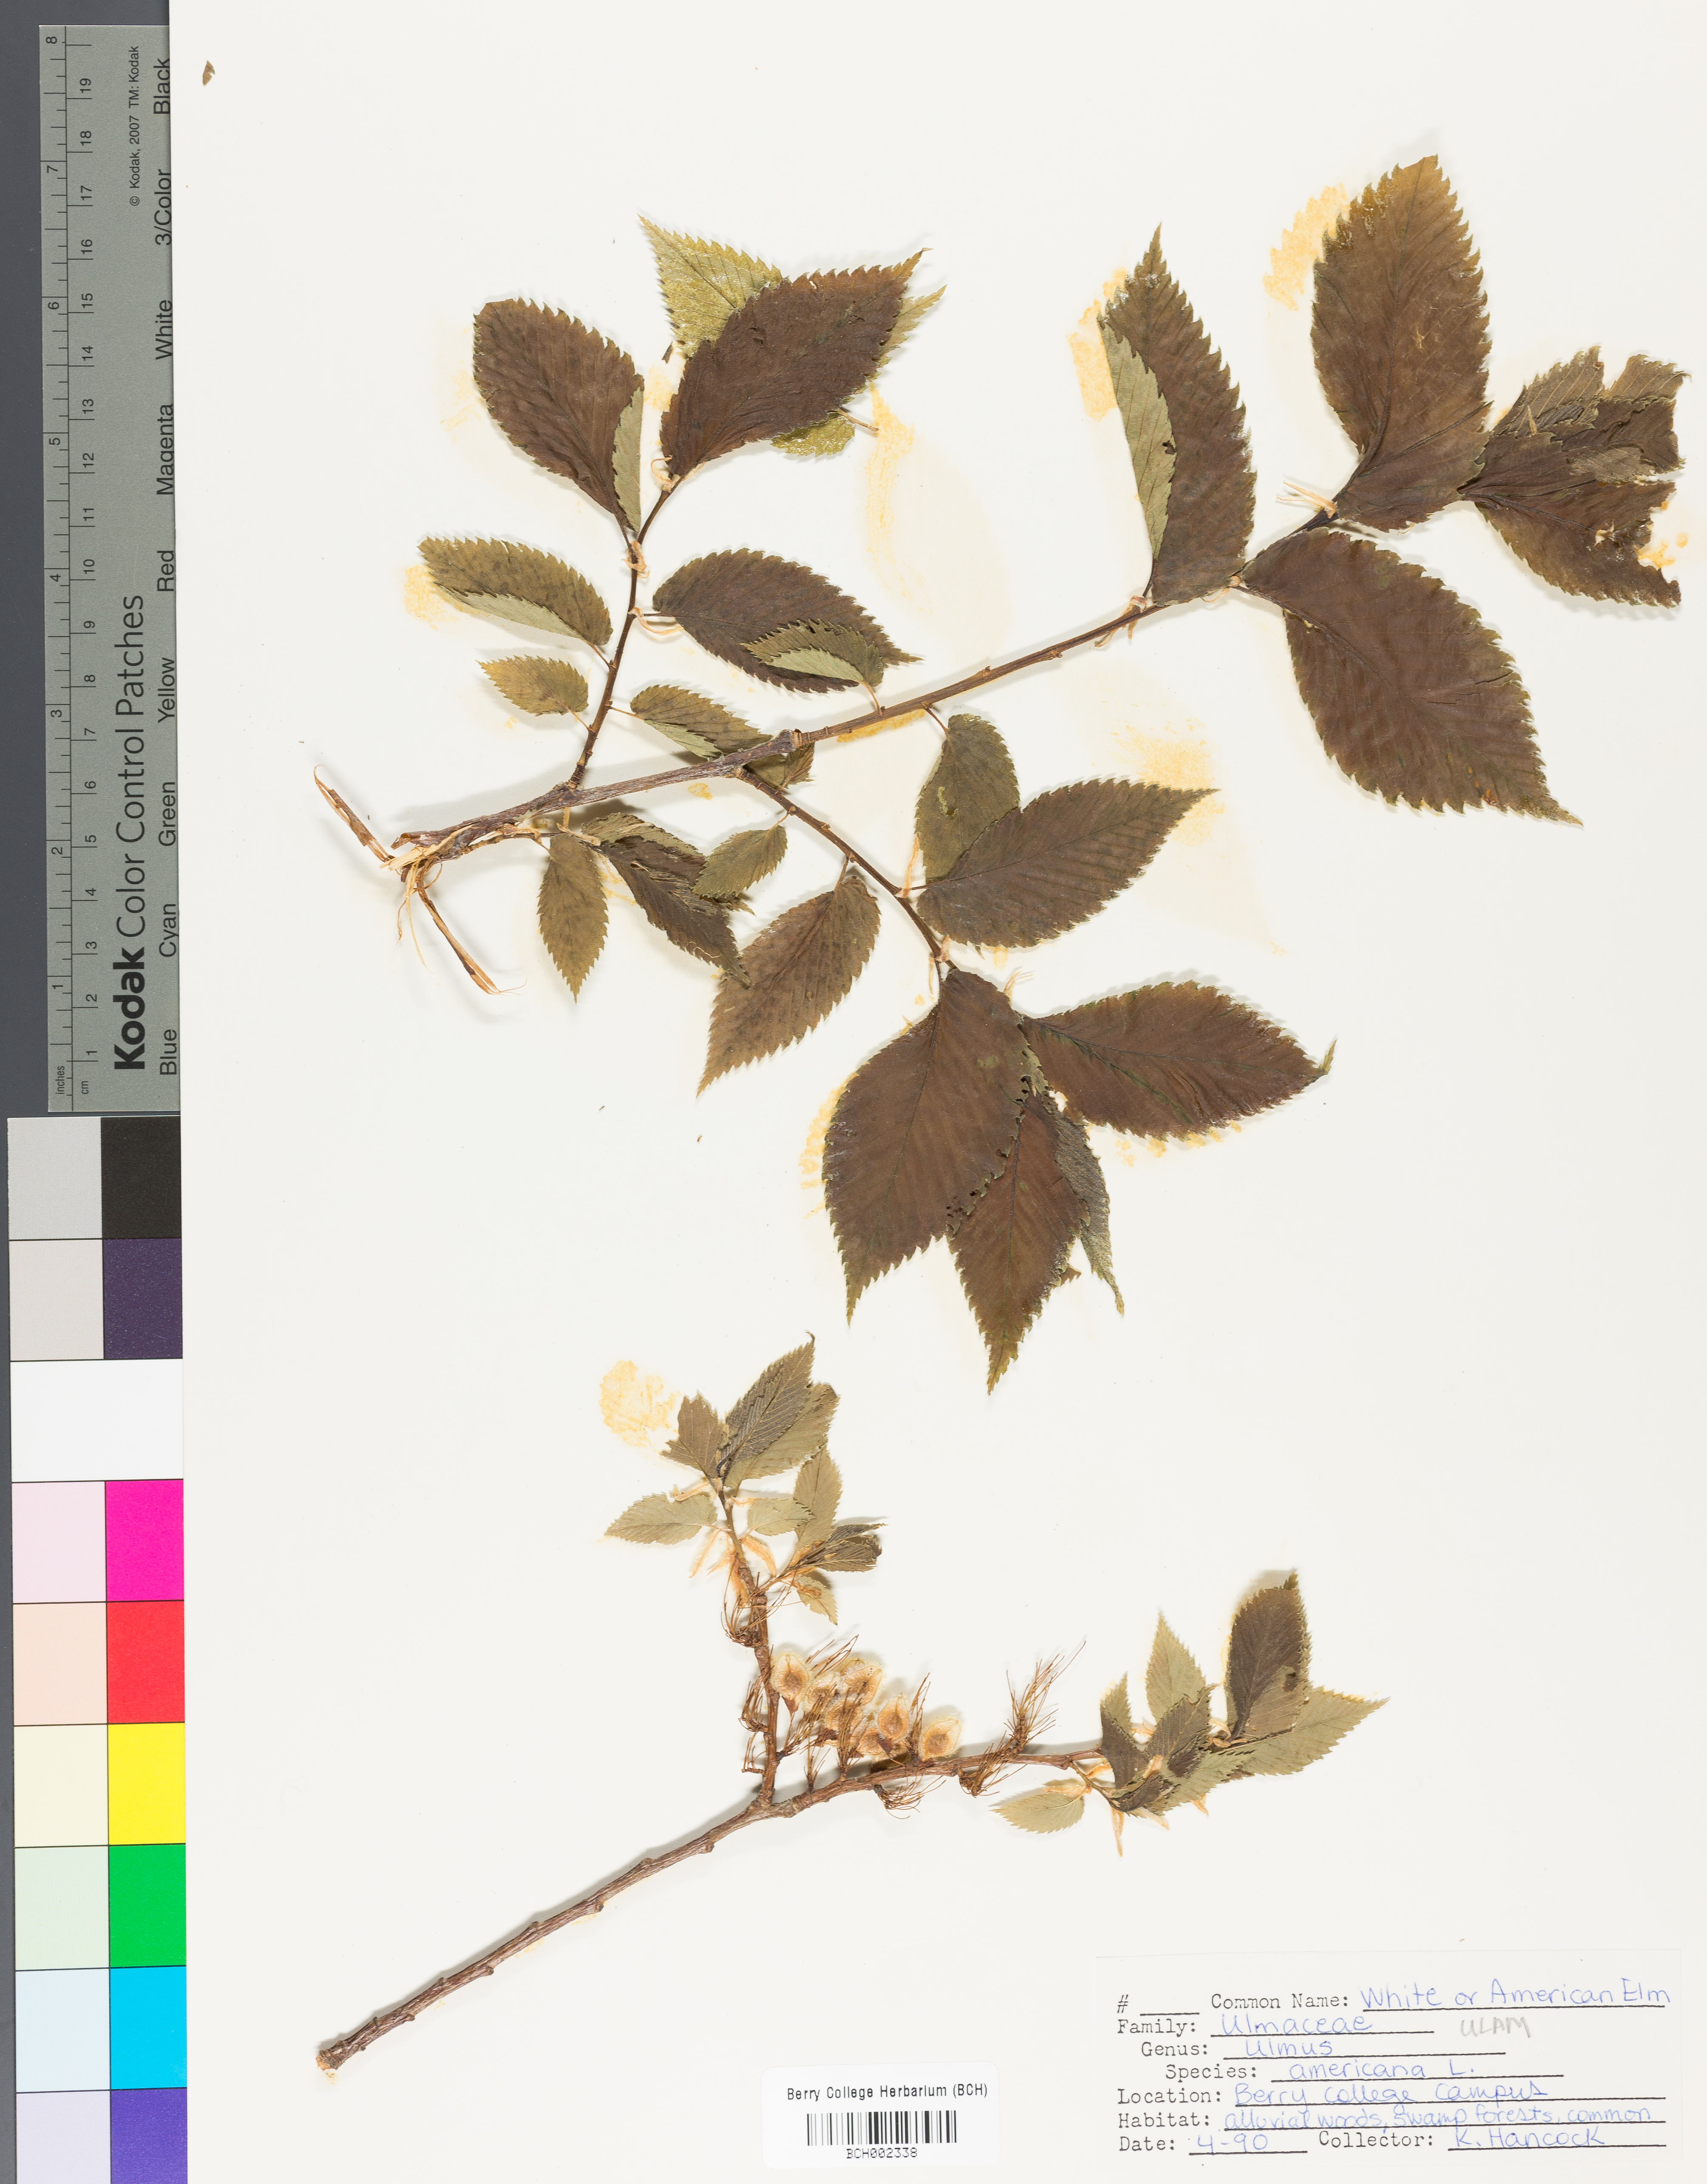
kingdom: Plantae
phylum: Tracheophyta
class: Magnoliopsida
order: Rosales
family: Ulmaceae
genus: Ulmus
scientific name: Ulmus americana
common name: American elm
